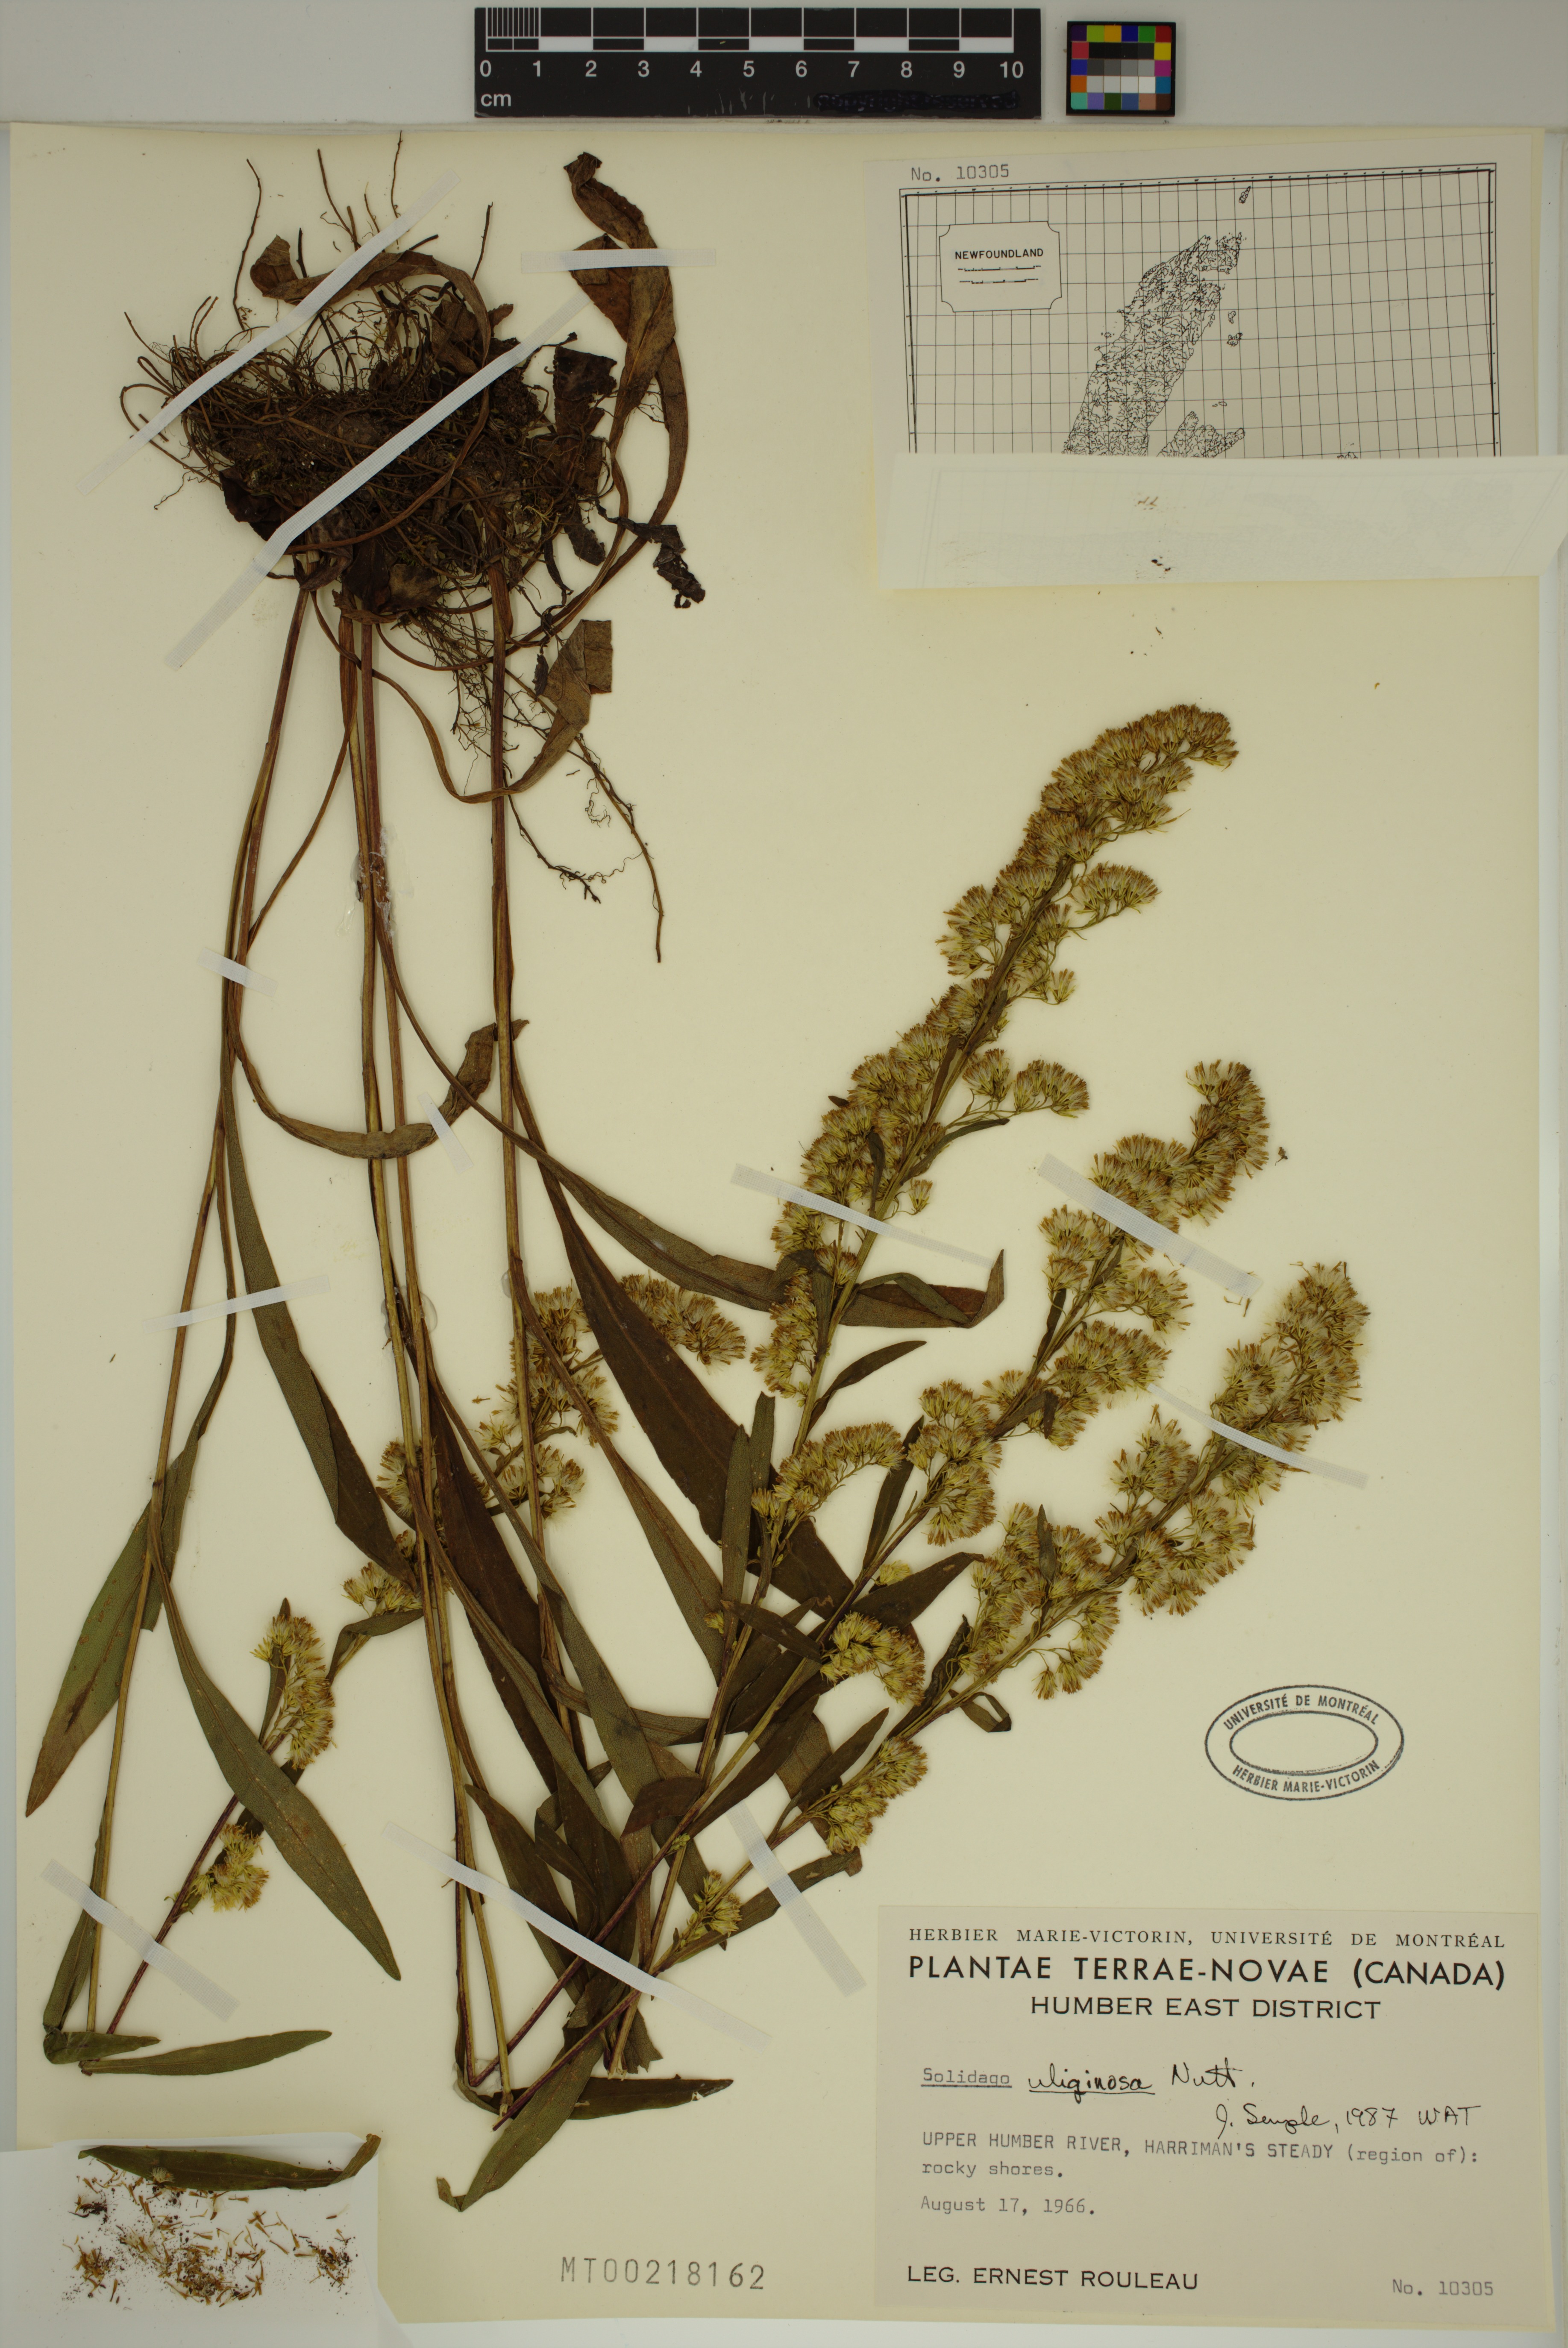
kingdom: Plantae
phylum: Tracheophyta
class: Magnoliopsida
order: Asterales
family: Asteraceae
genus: Solidago
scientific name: Solidago uliginosa
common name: Bog goldenrod
